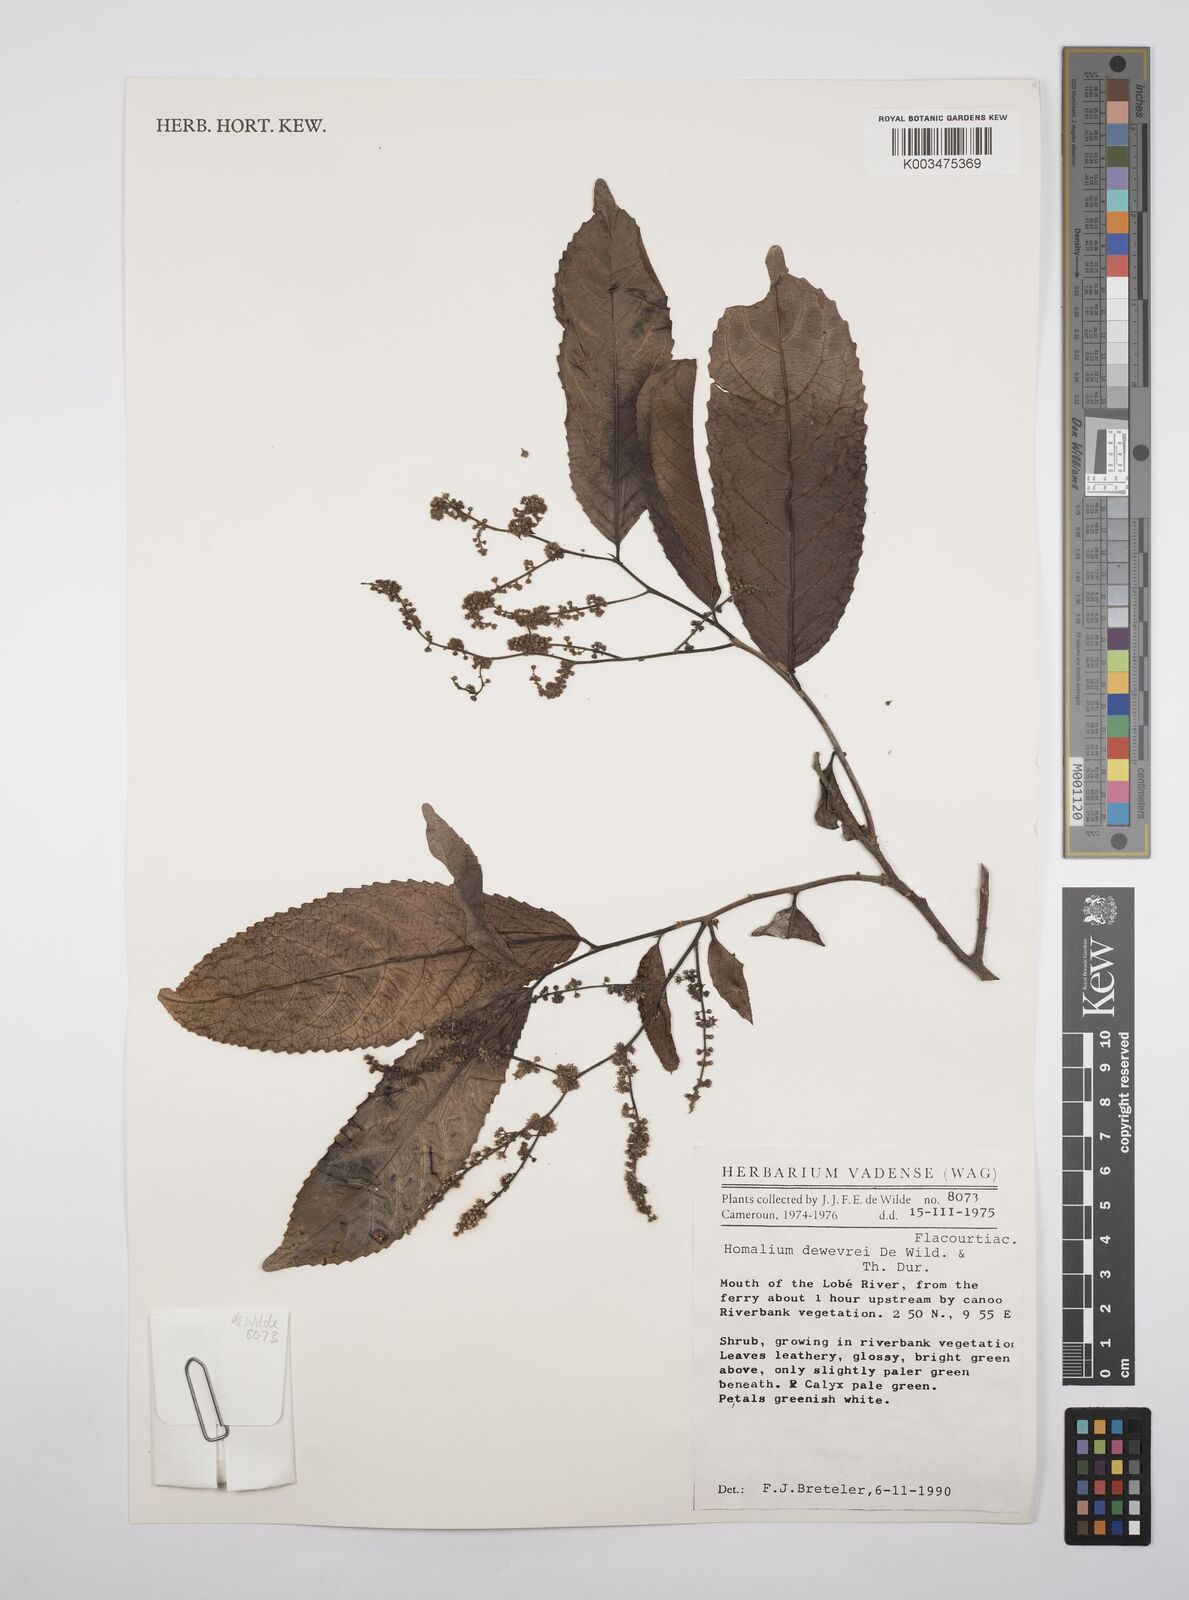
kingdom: Plantae
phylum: Tracheophyta
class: Magnoliopsida
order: Malpighiales
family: Salicaceae
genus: Homalium
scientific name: Homalium dewevrei
